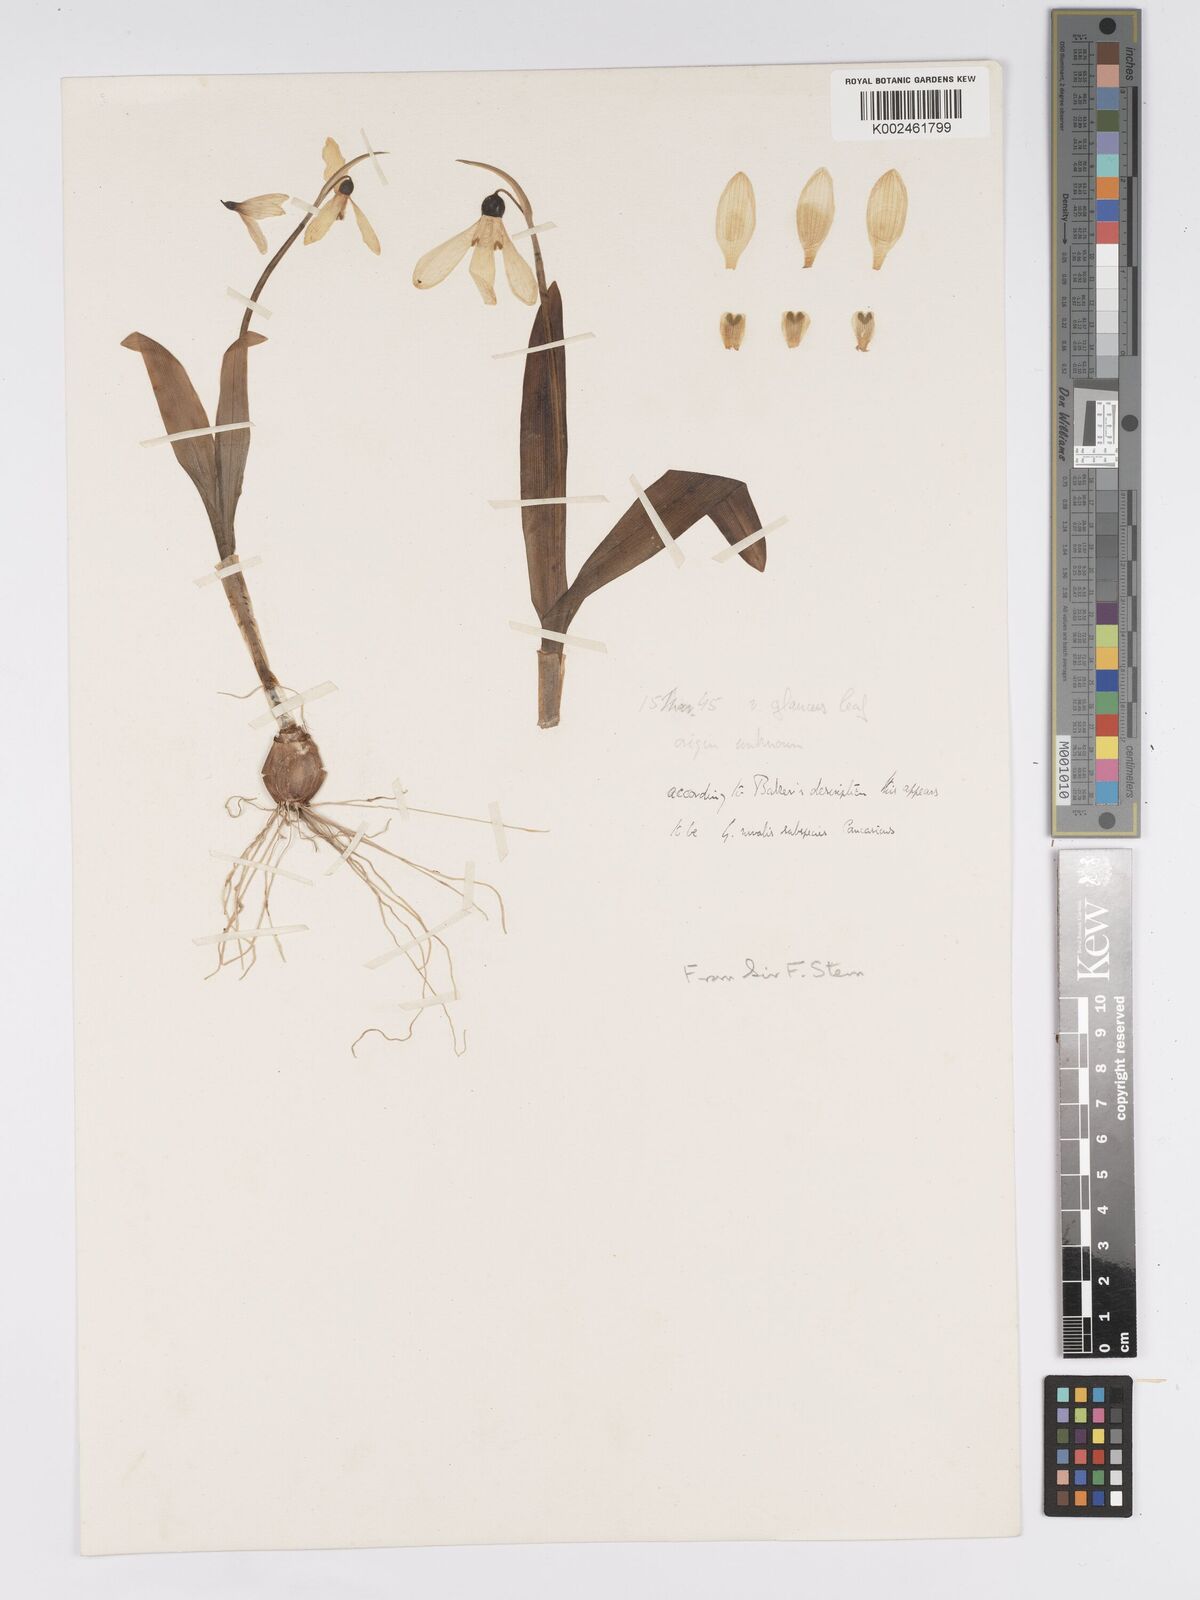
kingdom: Plantae
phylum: Tracheophyta
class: Liliopsida
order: Asparagales
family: Amaryllidaceae
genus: Galanthus
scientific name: Galanthus
